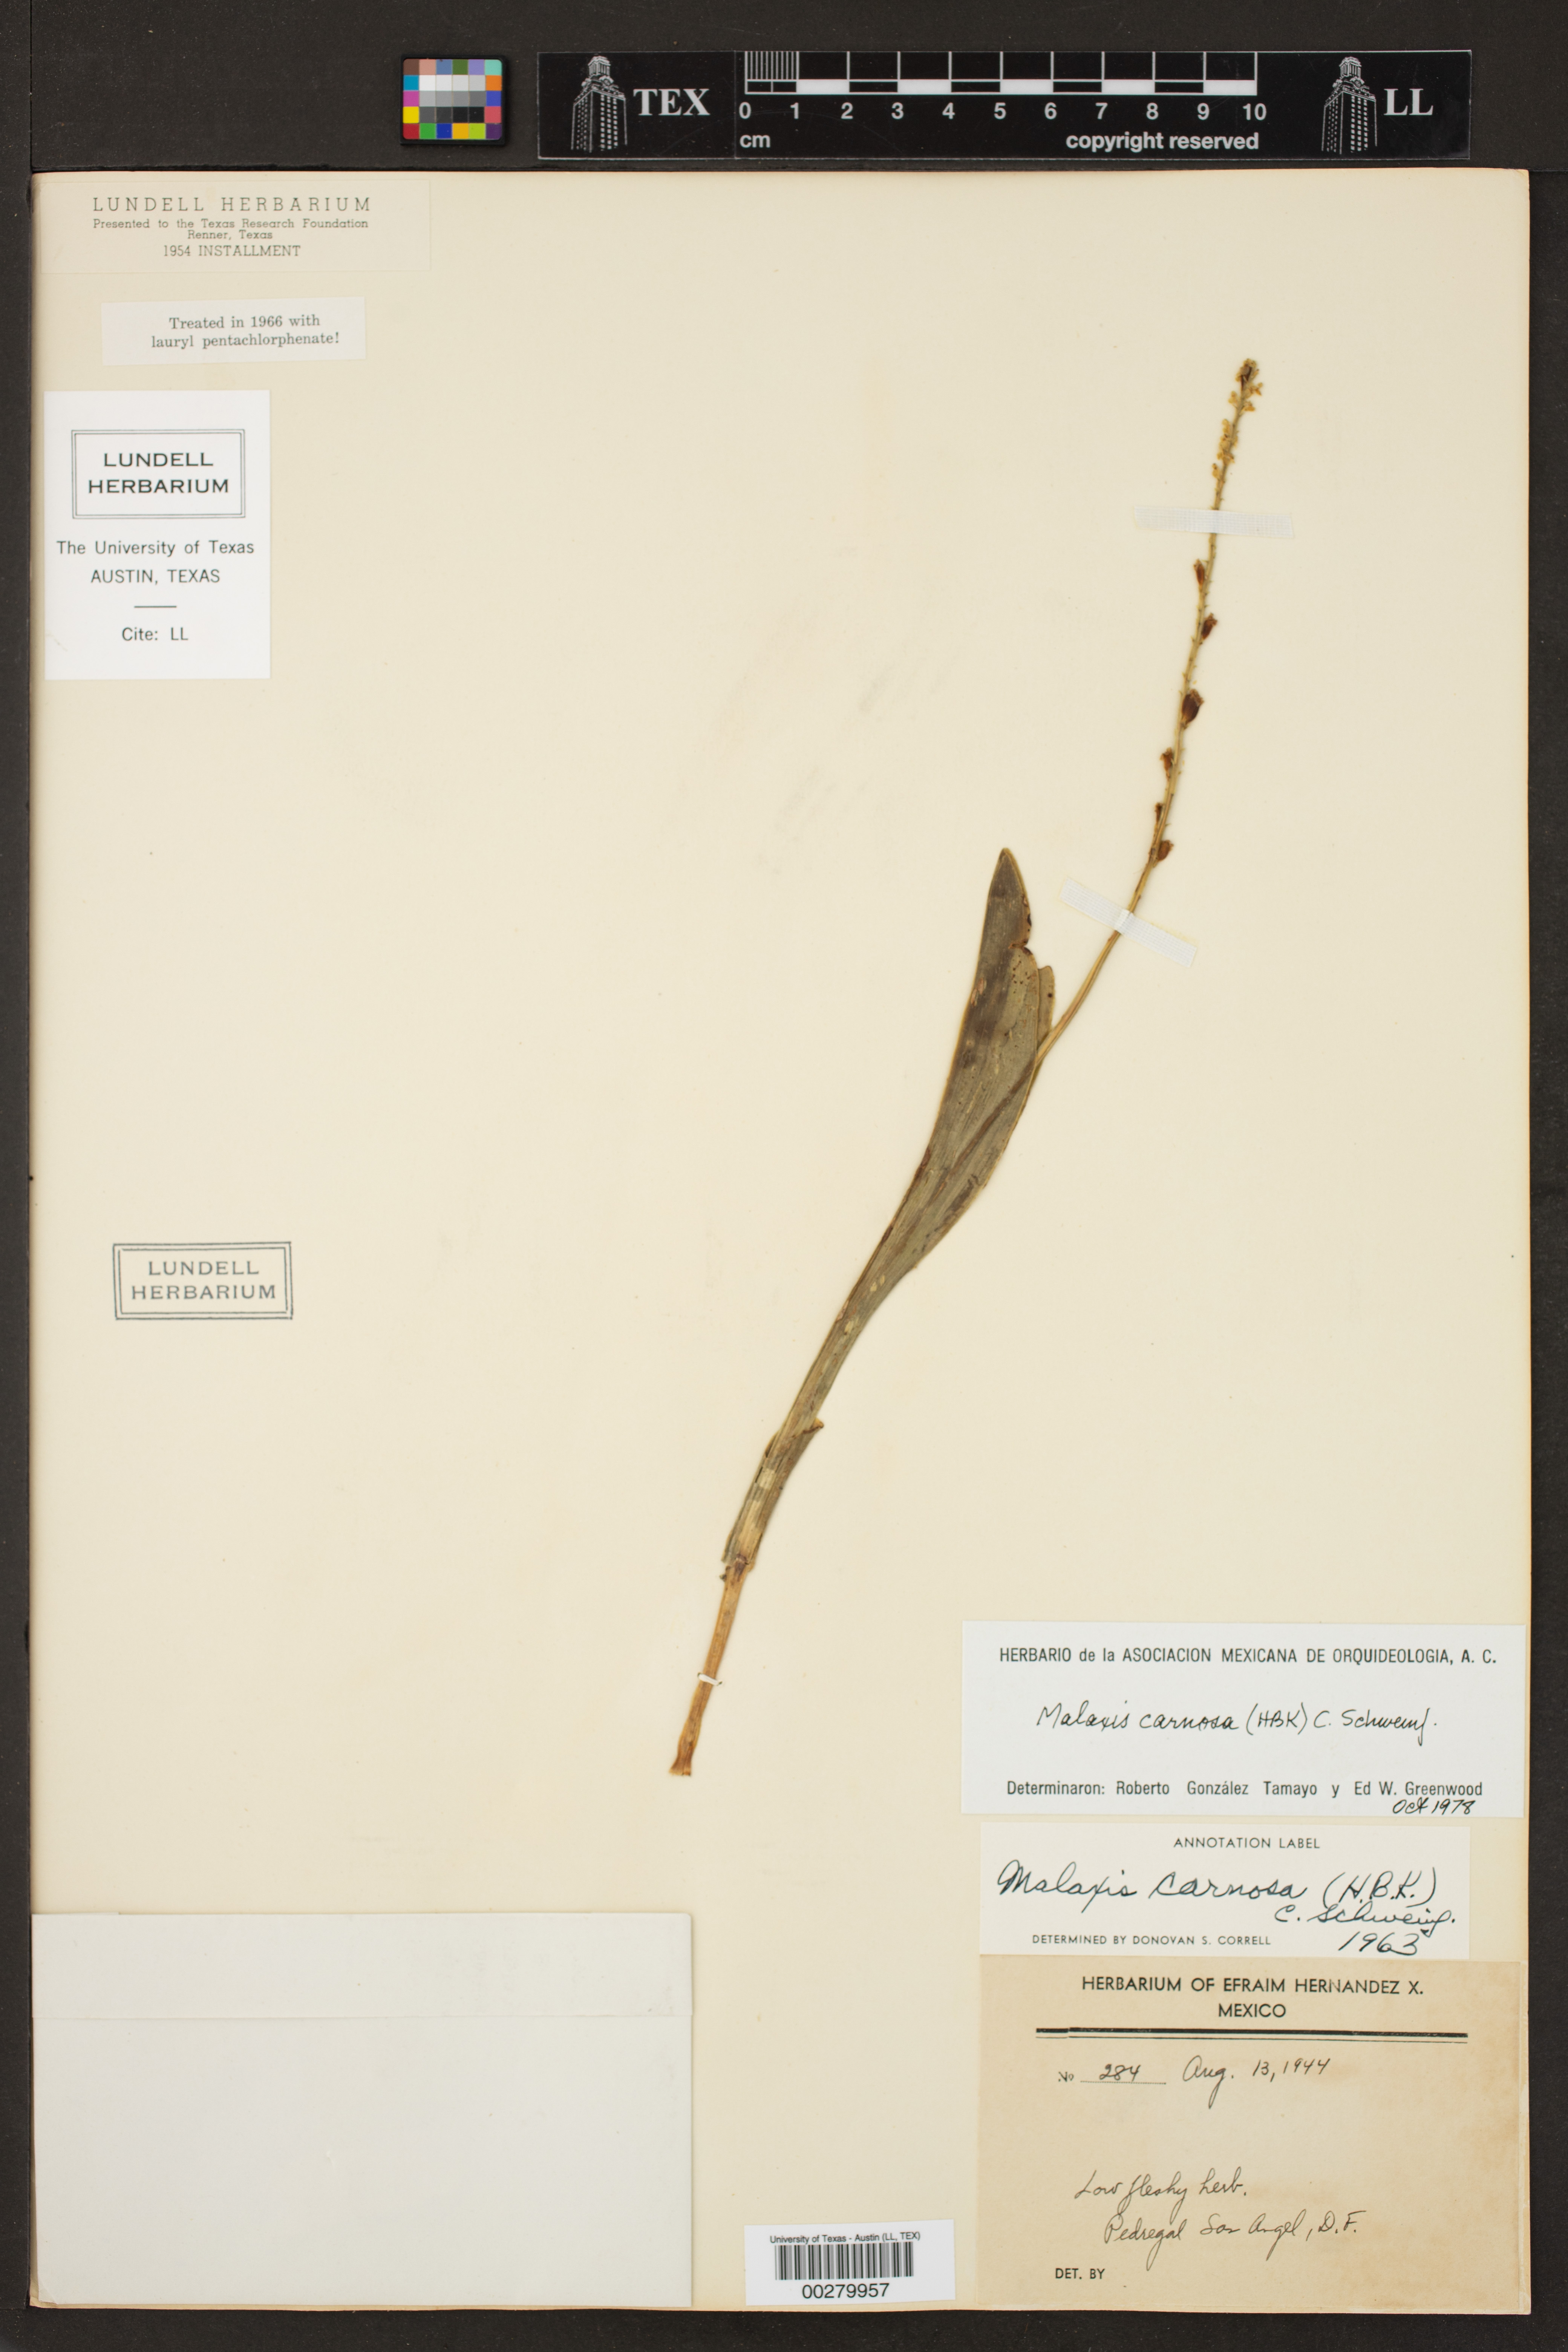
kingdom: Plantae
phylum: Tracheophyta
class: Liliopsida
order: Asparagales
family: Orchidaceae
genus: Malaxis
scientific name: Malaxis carnosa
